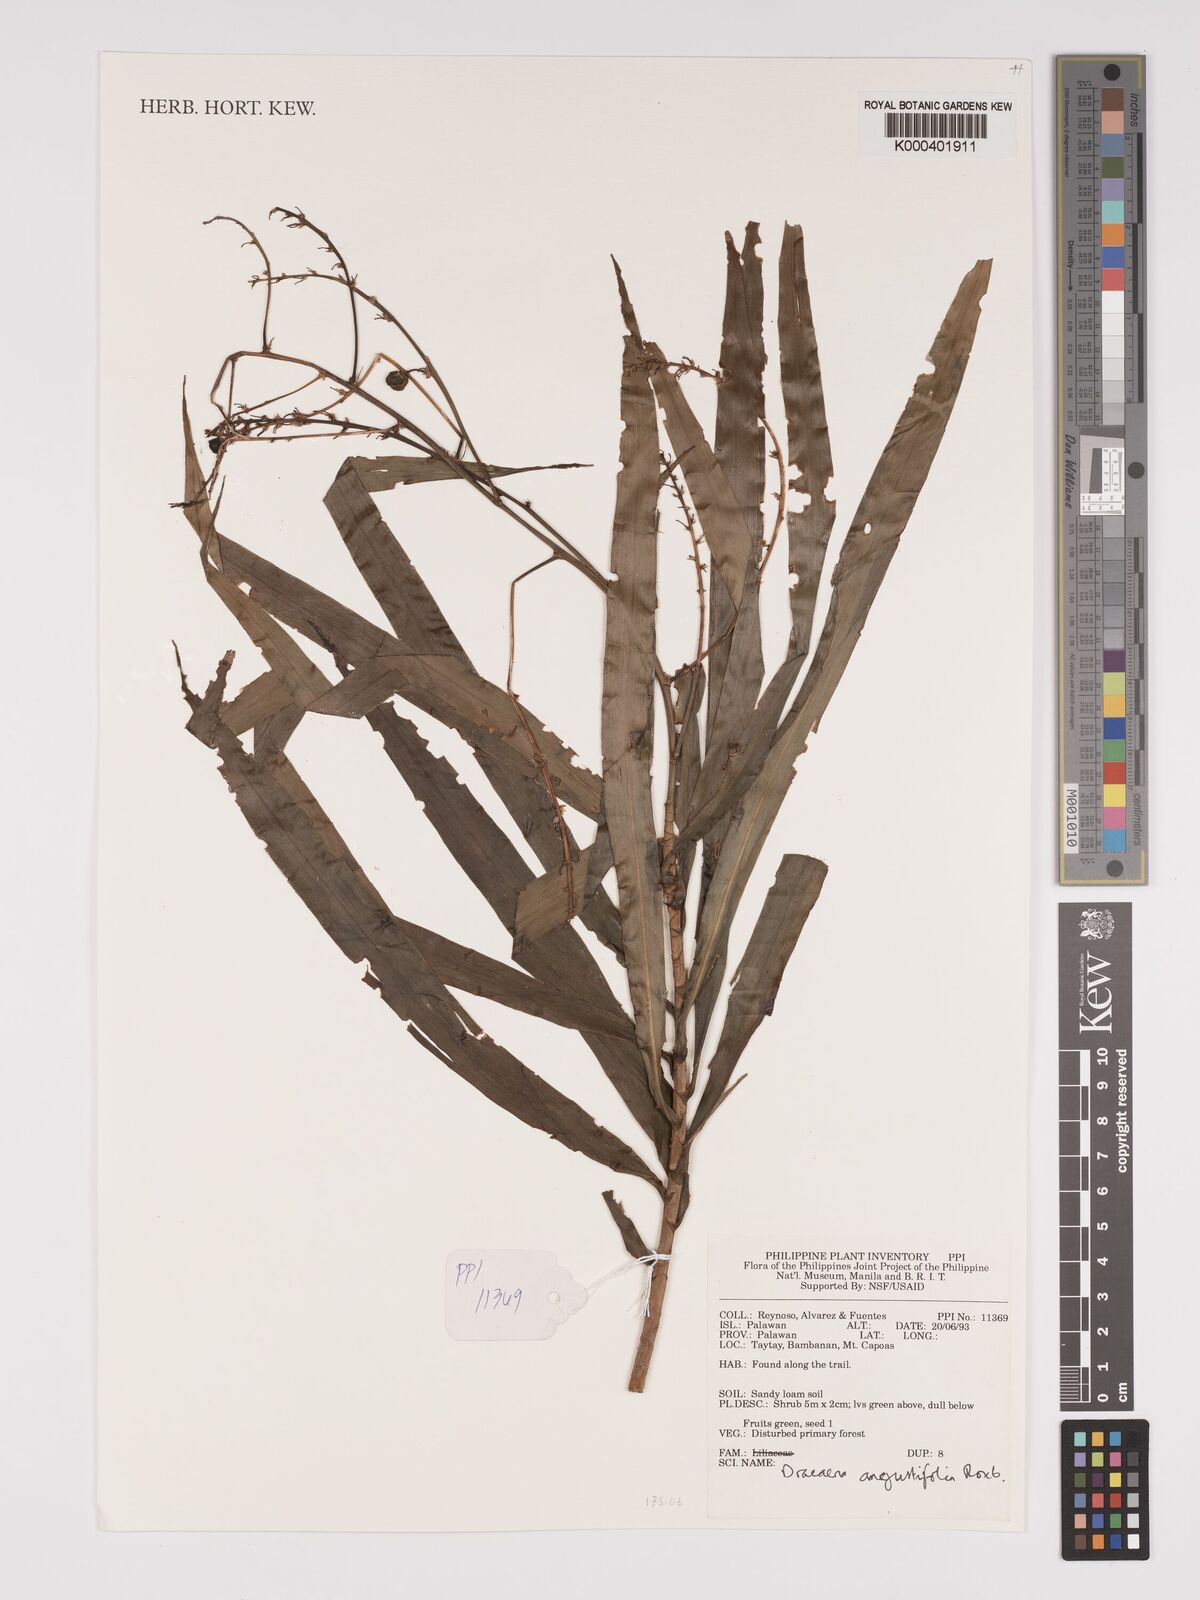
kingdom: Plantae
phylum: Tracheophyta
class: Liliopsida
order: Asparagales
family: Asparagaceae
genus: Dracaena
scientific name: Dracaena angustifolia
